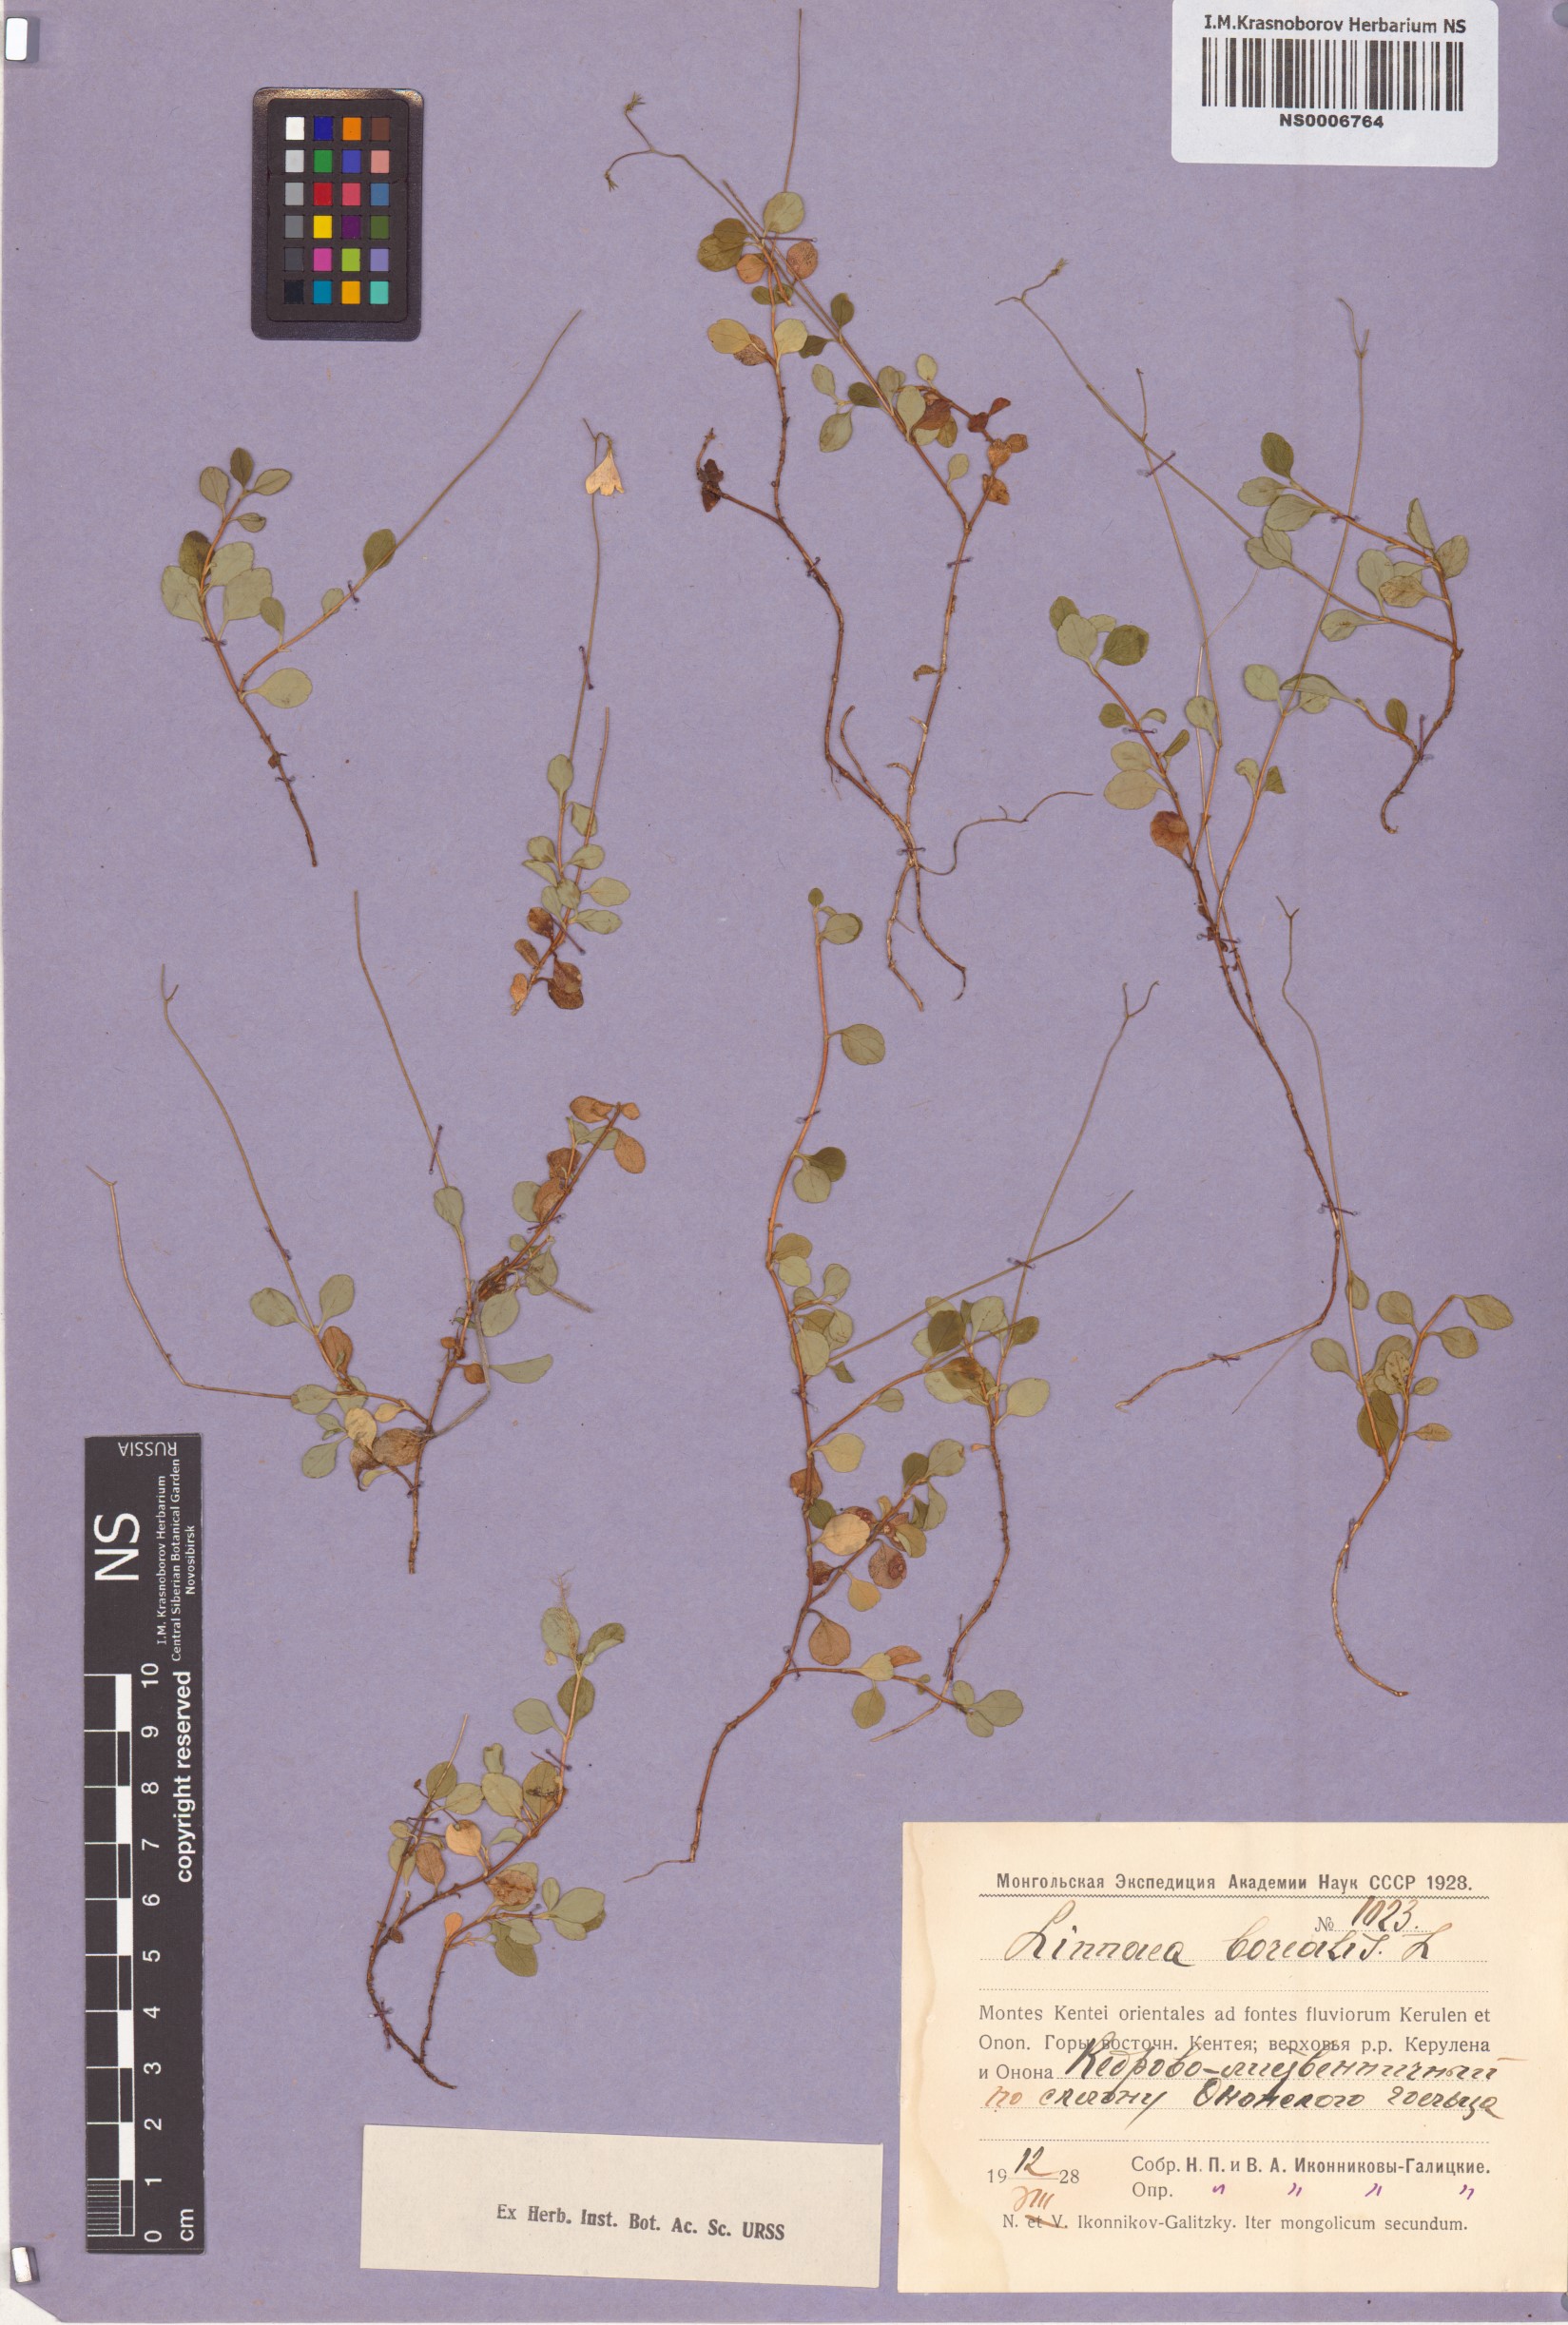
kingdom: Plantae
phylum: Tracheophyta
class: Magnoliopsida
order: Dipsacales
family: Caprifoliaceae
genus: Linnaea
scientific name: Linnaea borealis
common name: Twinflower
